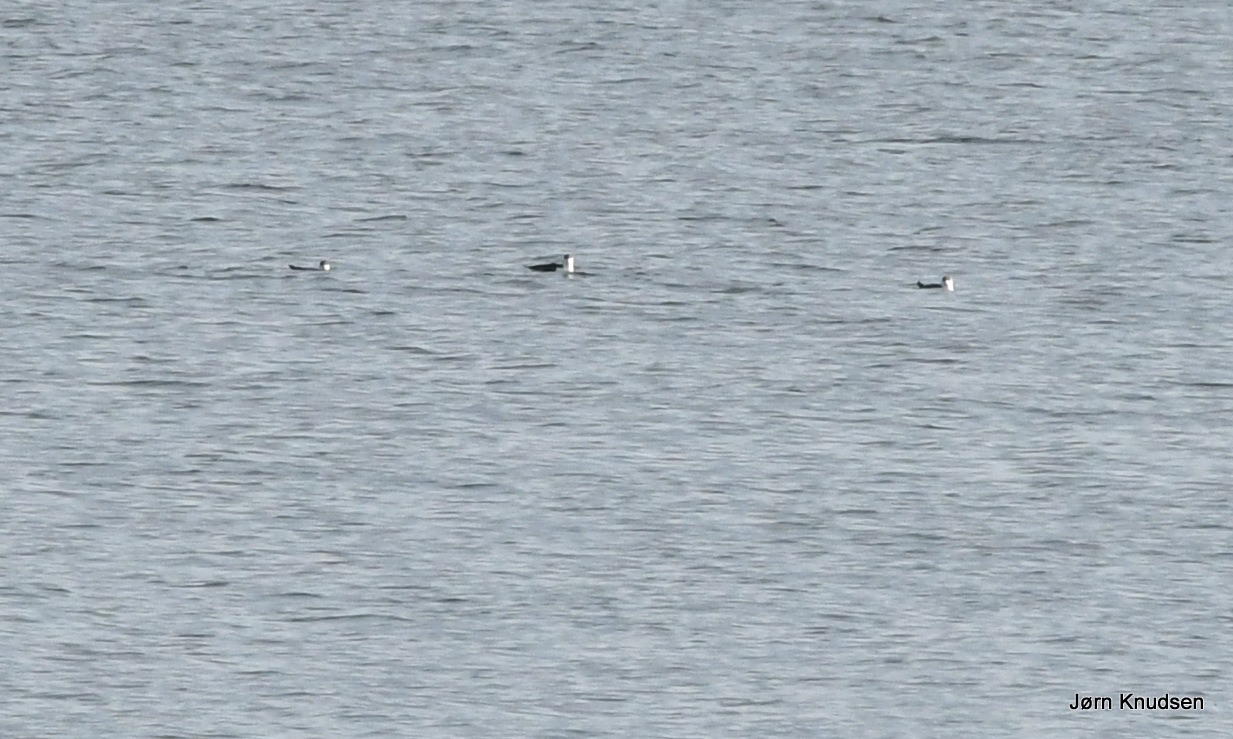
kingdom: Animalia
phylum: Chordata
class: Aves
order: Charadriiformes
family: Alcidae
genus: Alca
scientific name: Alca torda
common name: Alk
